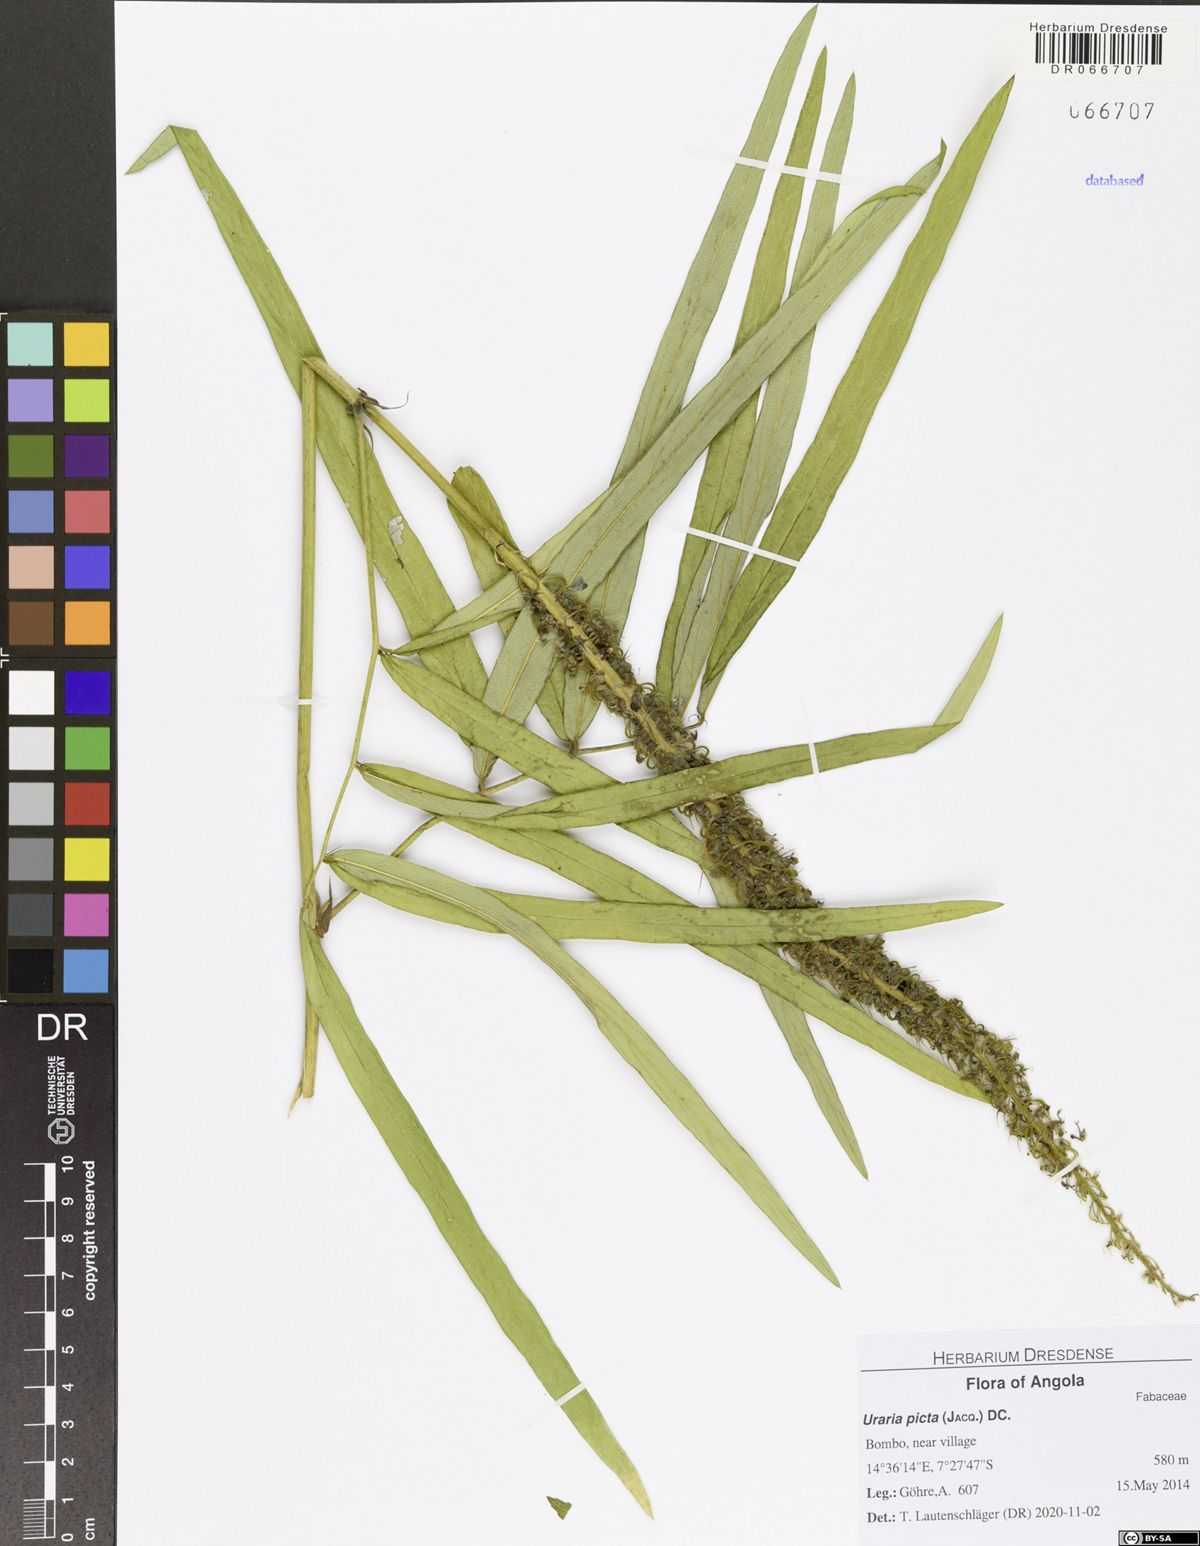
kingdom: Plantae
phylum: Tracheophyta
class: Magnoliopsida
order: Fabales
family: Fabaceae
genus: Uraria
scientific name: Uraria picta
